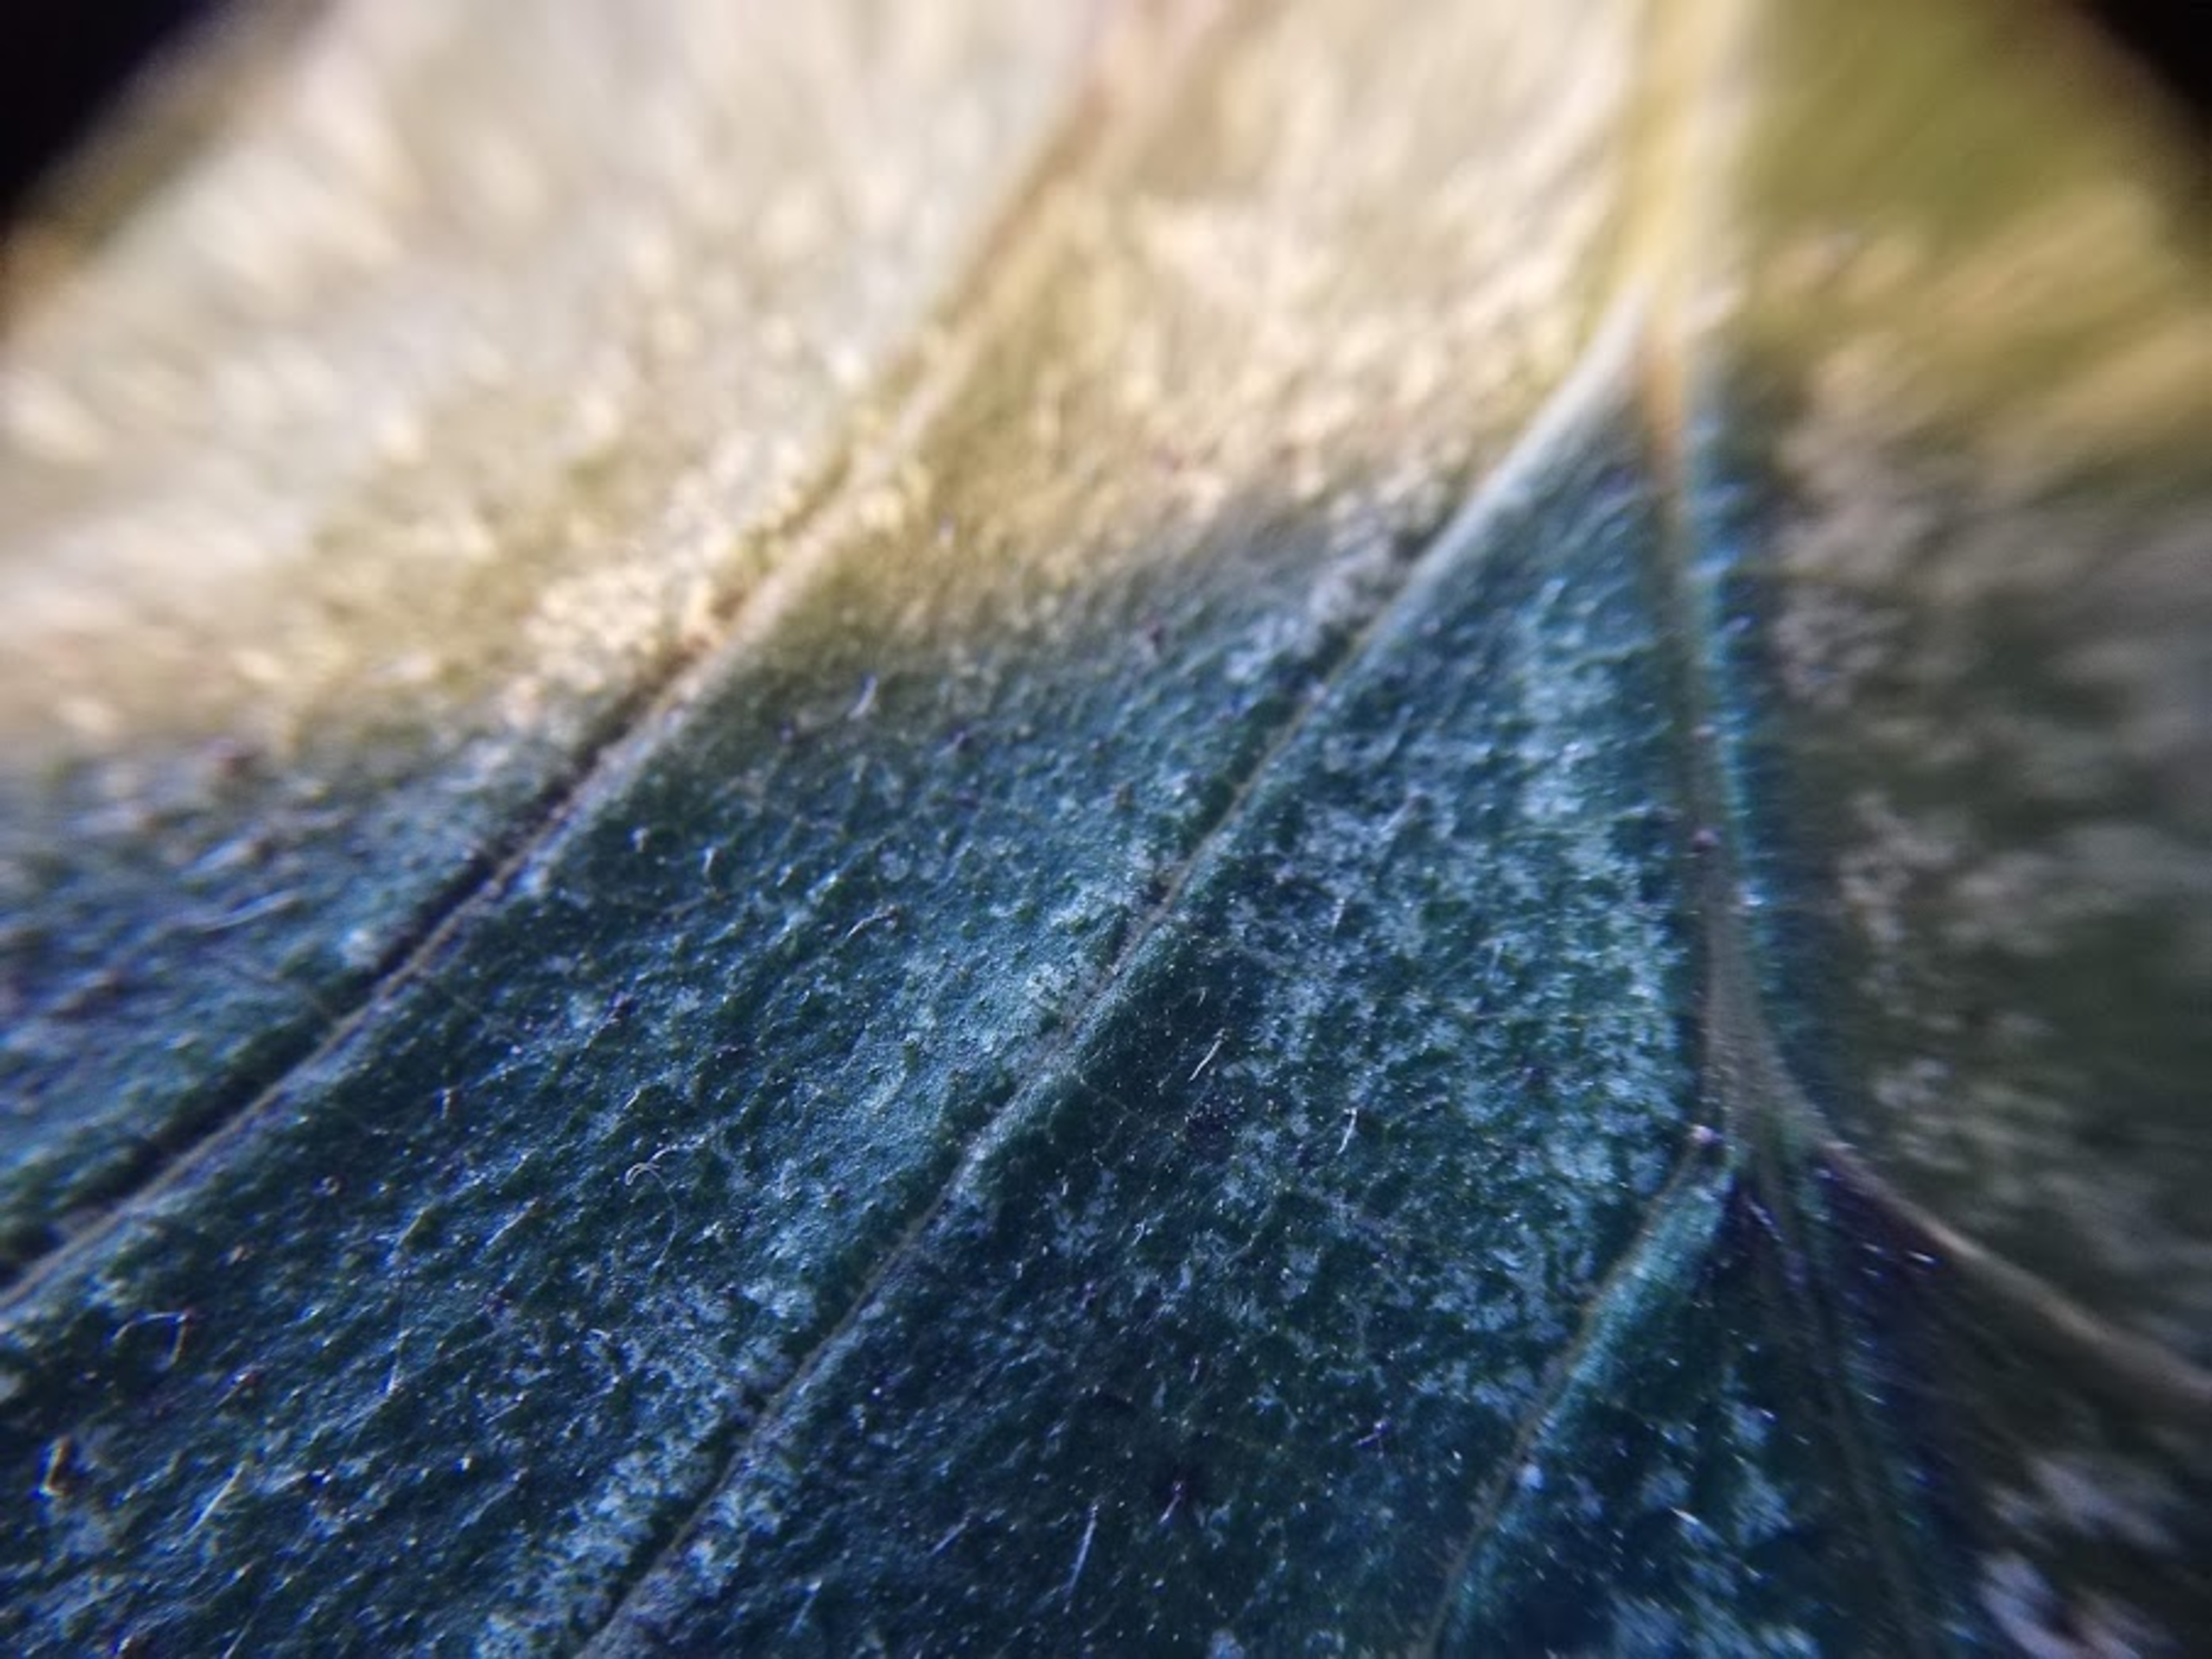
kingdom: Plantae
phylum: Tracheophyta
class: Magnoliopsida
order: Rosales
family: Ulmaceae
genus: Ulmus
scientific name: Ulmus glabra
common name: Skov-elm/storbladet elm
